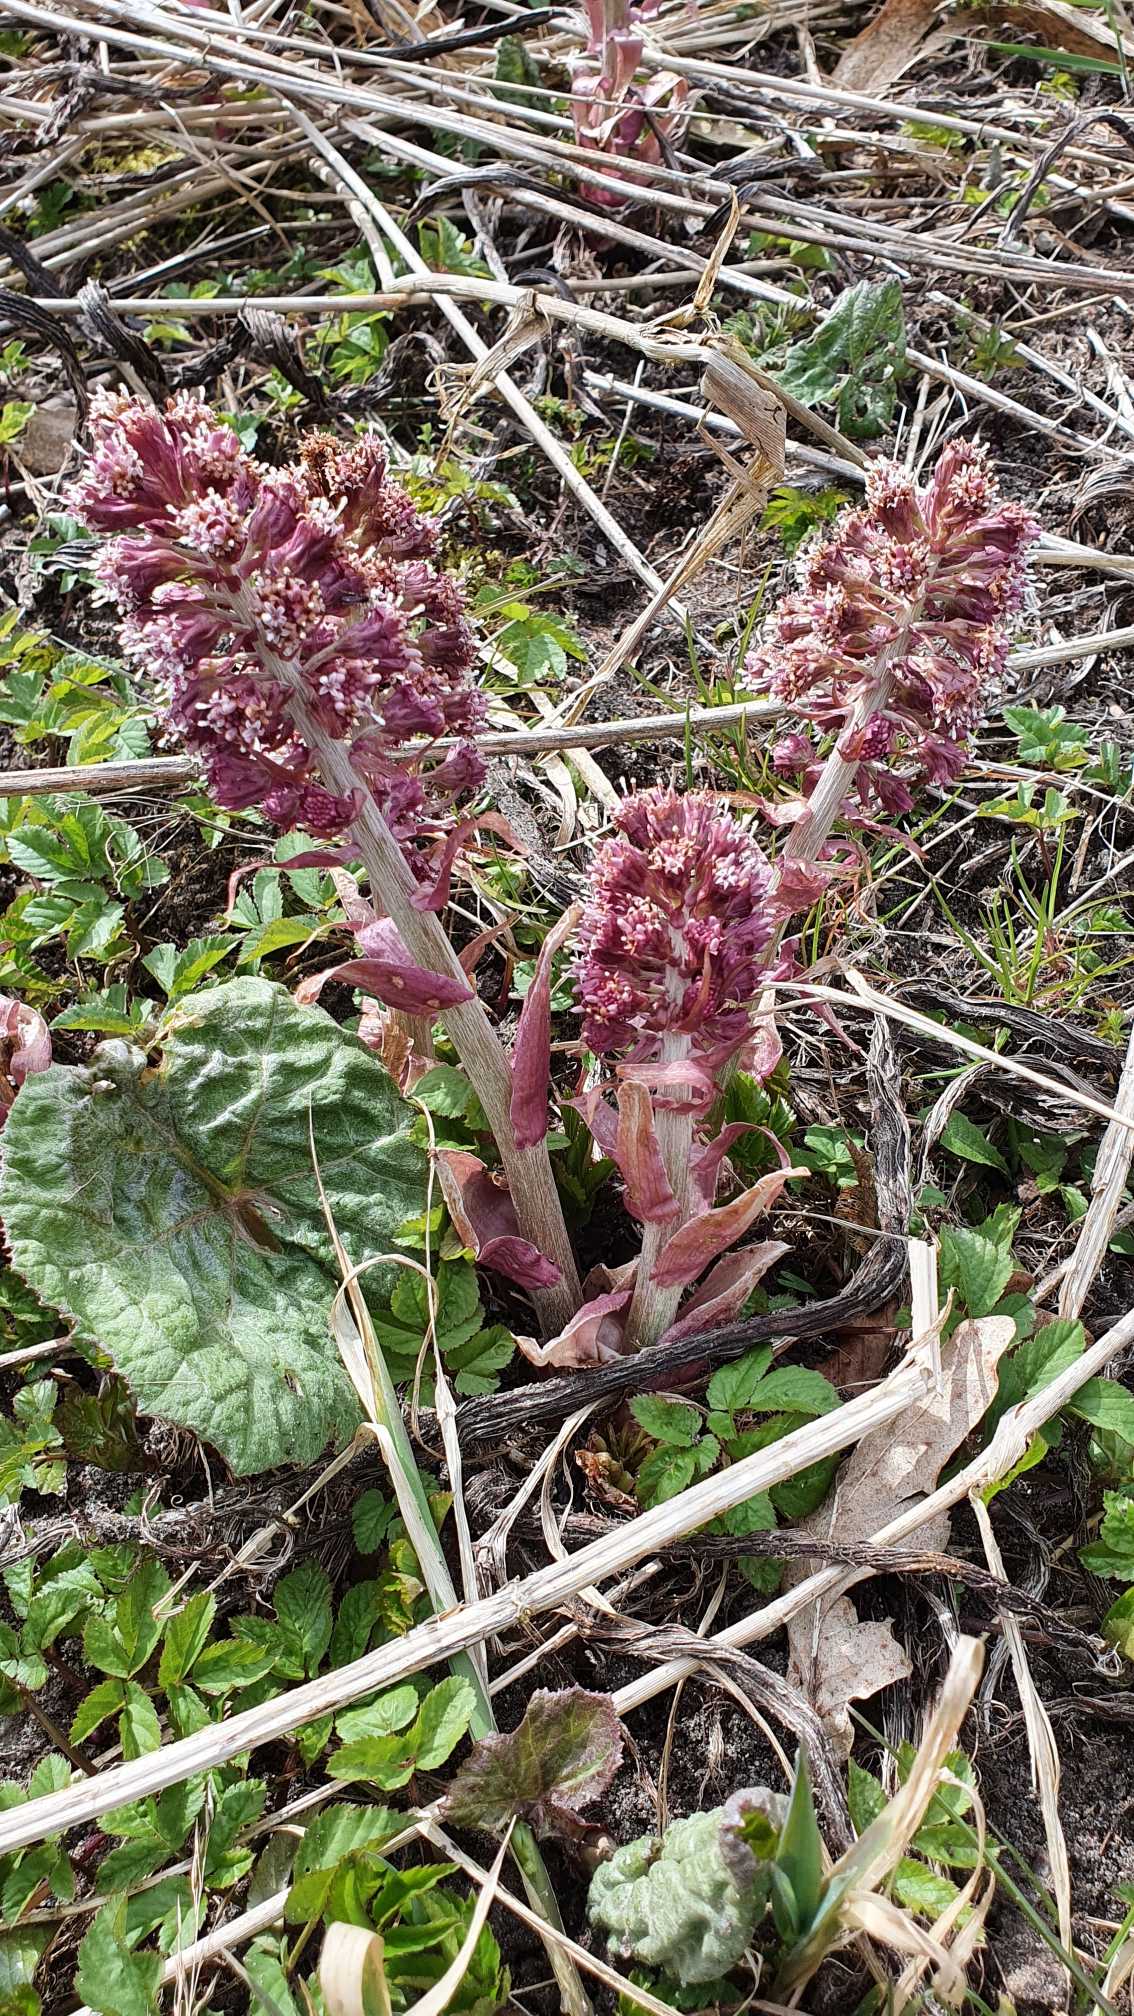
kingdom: Plantae
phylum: Tracheophyta
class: Magnoliopsida
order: Asterales
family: Asteraceae
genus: Petasites
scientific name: Petasites hybridus
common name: Rød hestehov
